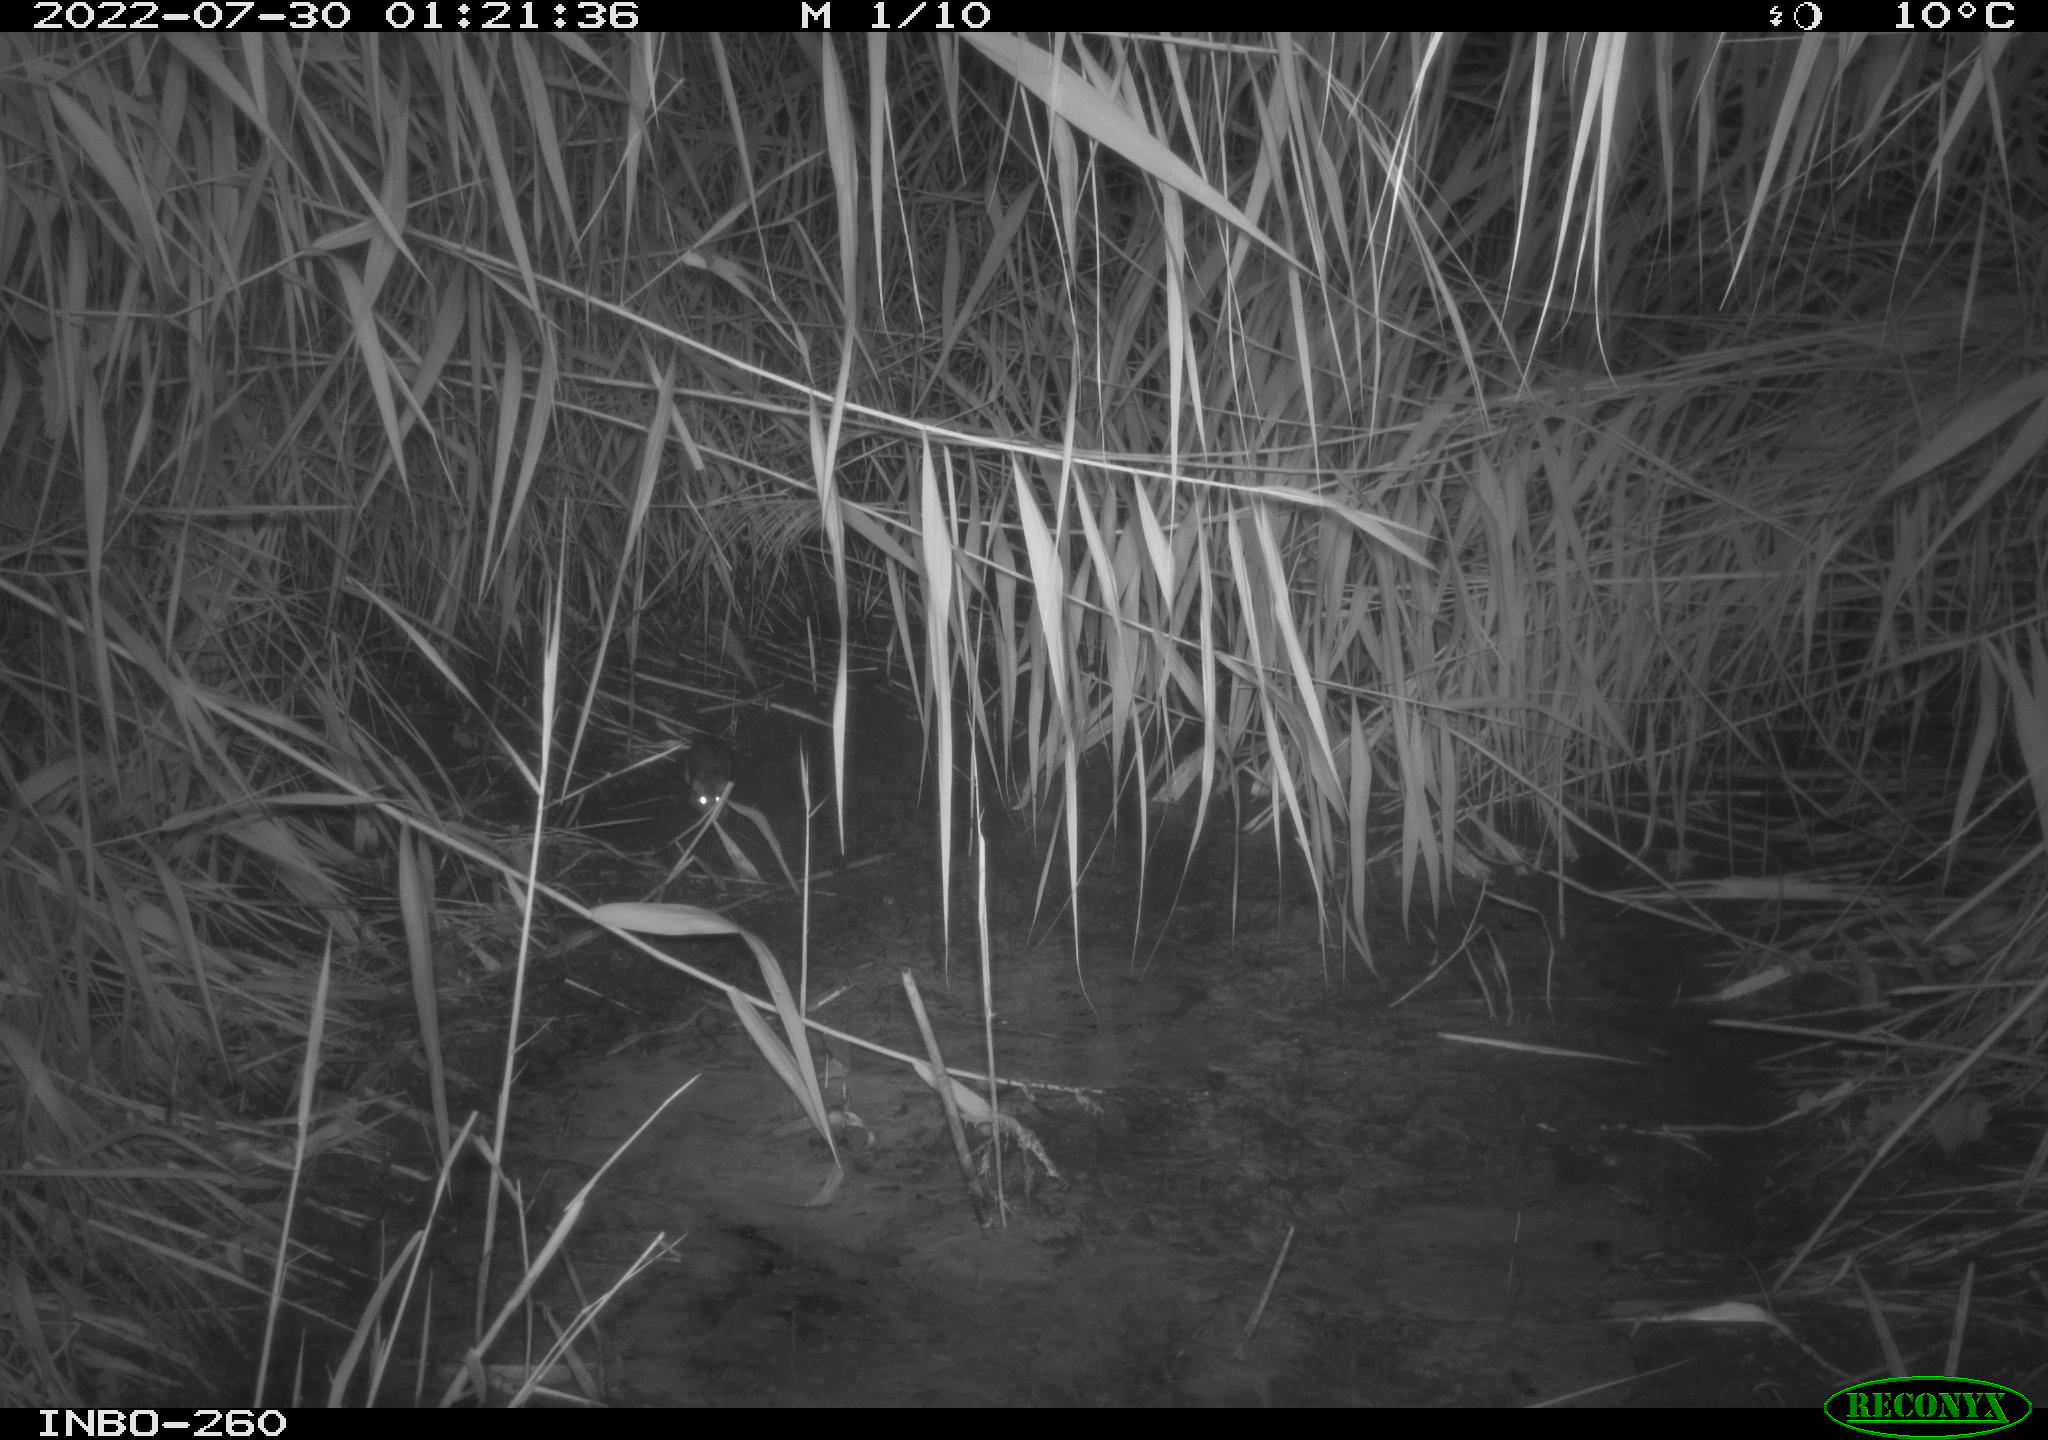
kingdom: Animalia
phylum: Chordata
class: Mammalia
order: Rodentia
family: Muridae
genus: Rattus
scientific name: Rattus norvegicus
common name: Brown rat
